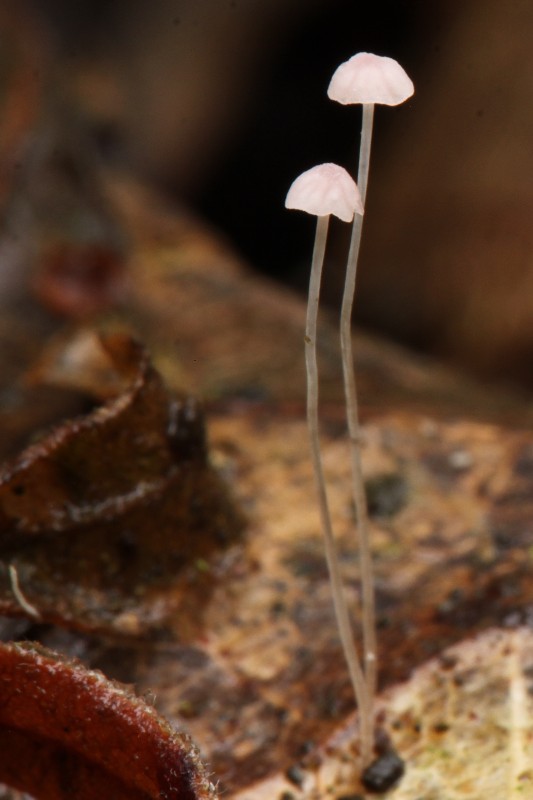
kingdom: Fungi
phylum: Basidiomycota
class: Agaricomycetes
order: Agaricales
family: Mycenaceae
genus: Mycena
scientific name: Mycena smithiana
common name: blegrød huesvamp
